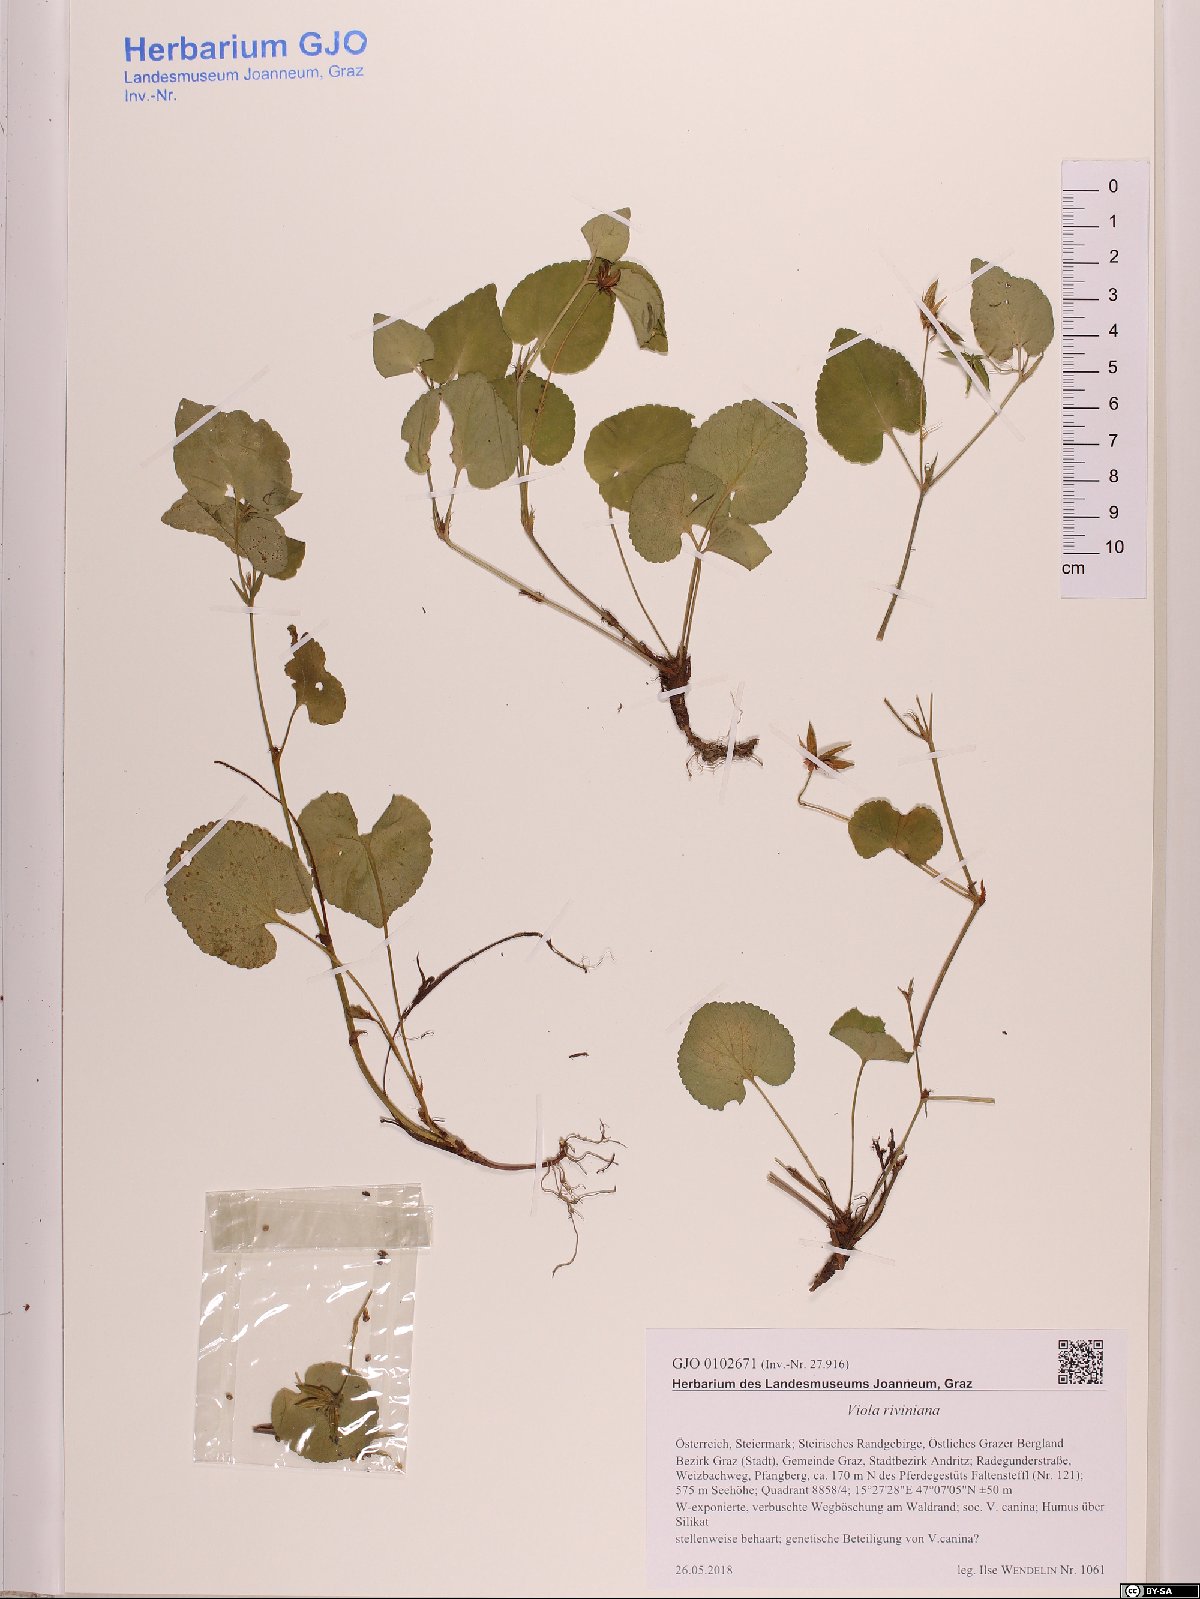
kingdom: Plantae
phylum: Tracheophyta
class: Magnoliopsida
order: Malpighiales
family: Violaceae
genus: Viola
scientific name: Viola riviniana
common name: Common dog-violet
